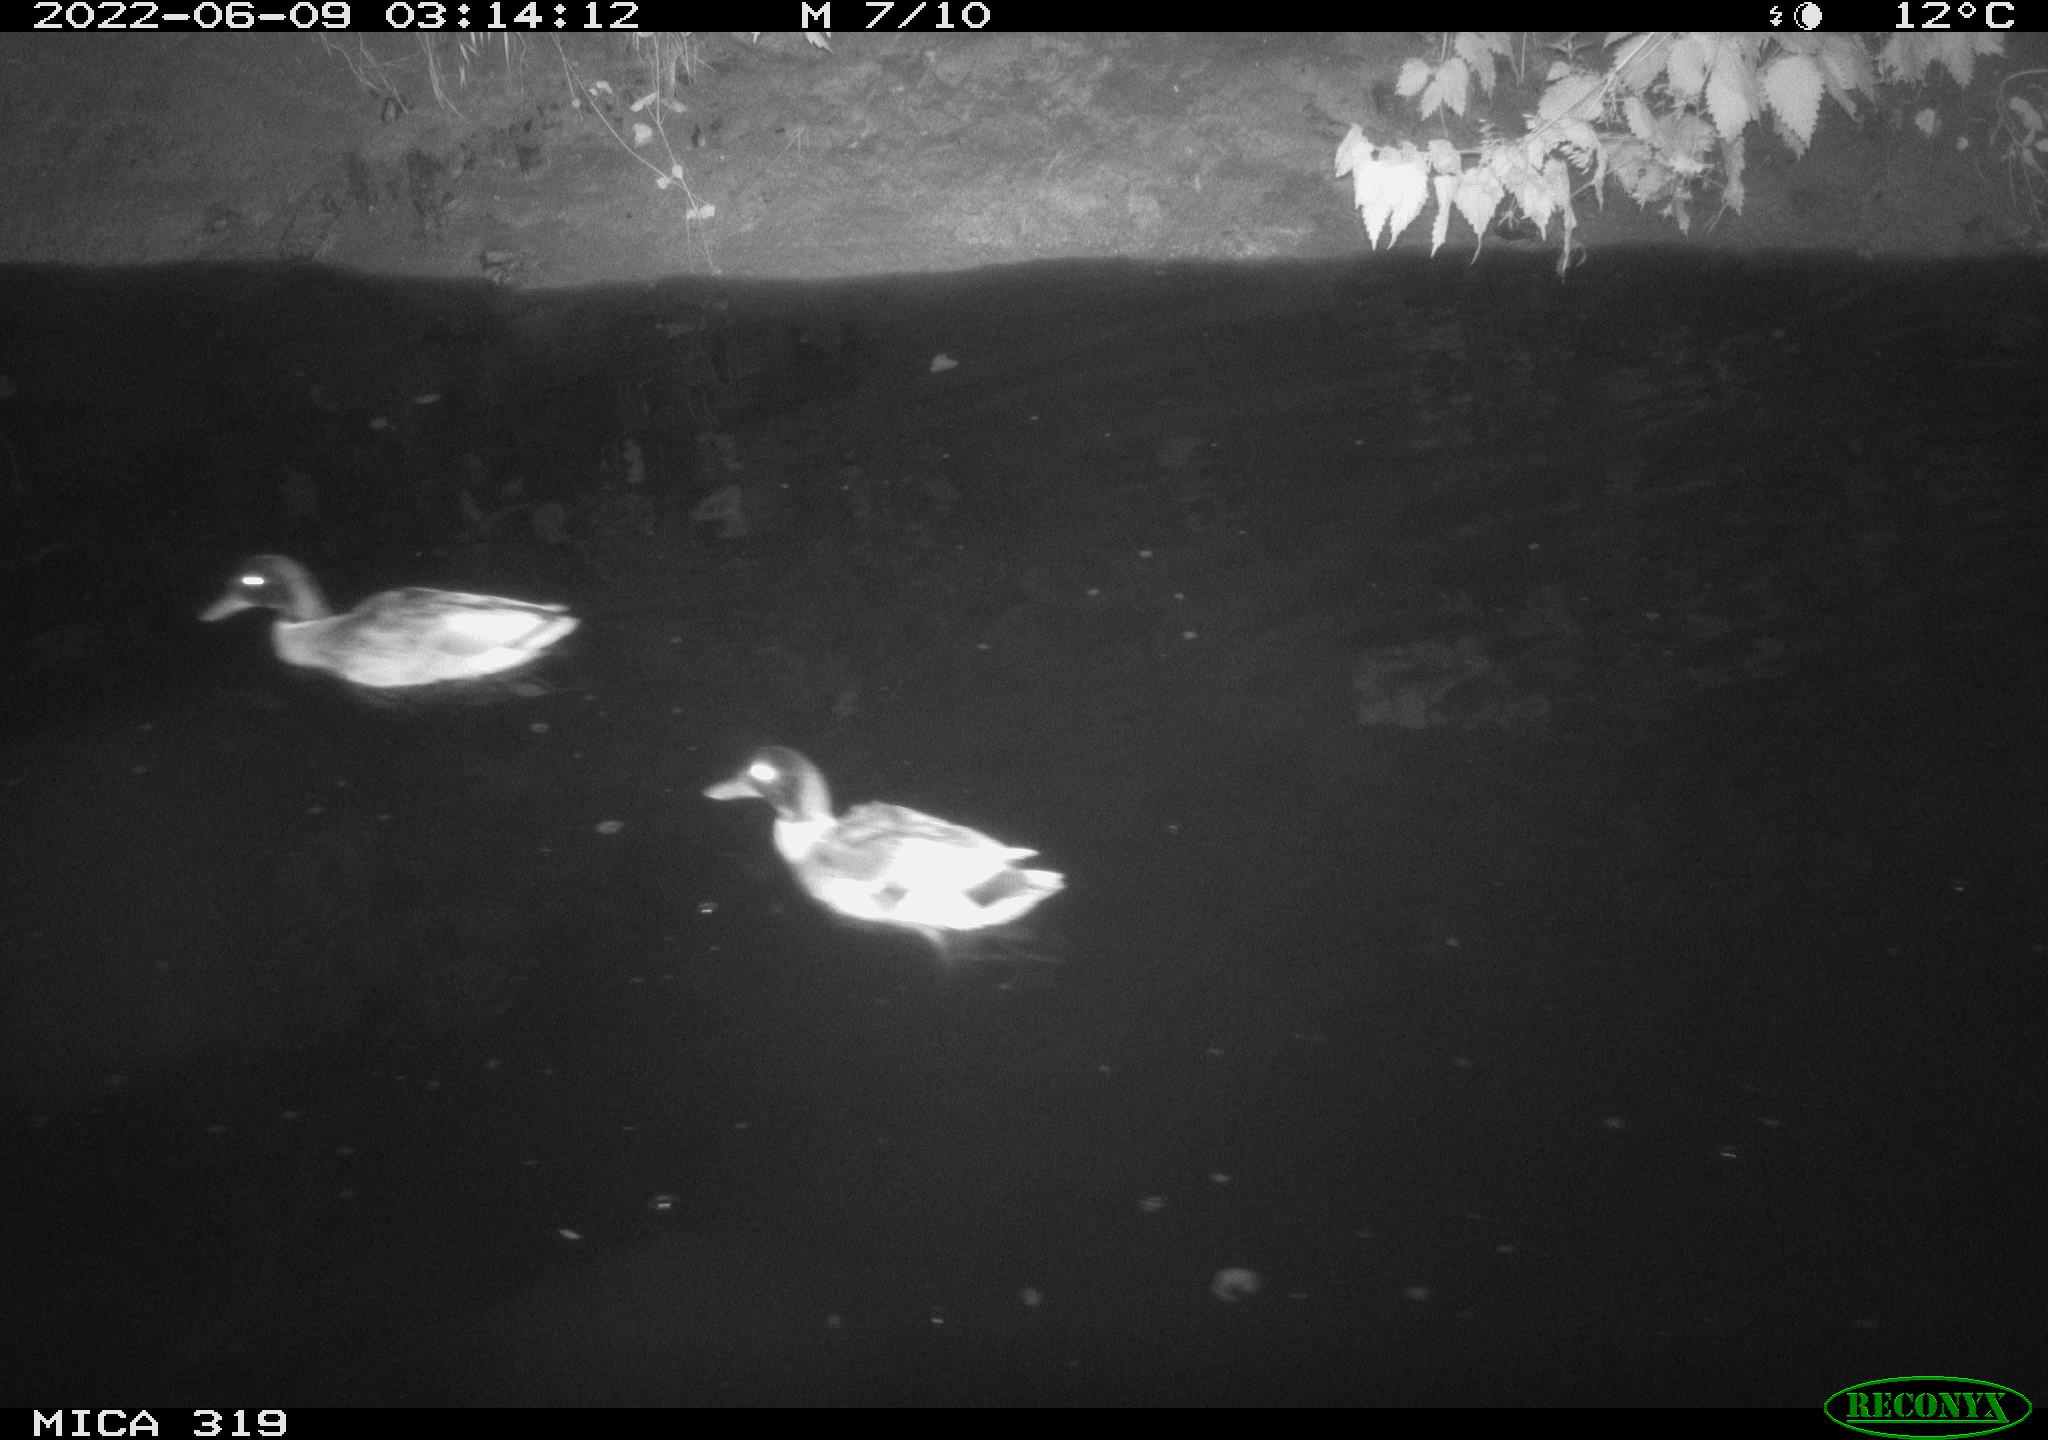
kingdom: Animalia
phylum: Chordata
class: Aves
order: Anseriformes
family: Anatidae
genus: Anas
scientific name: Anas
